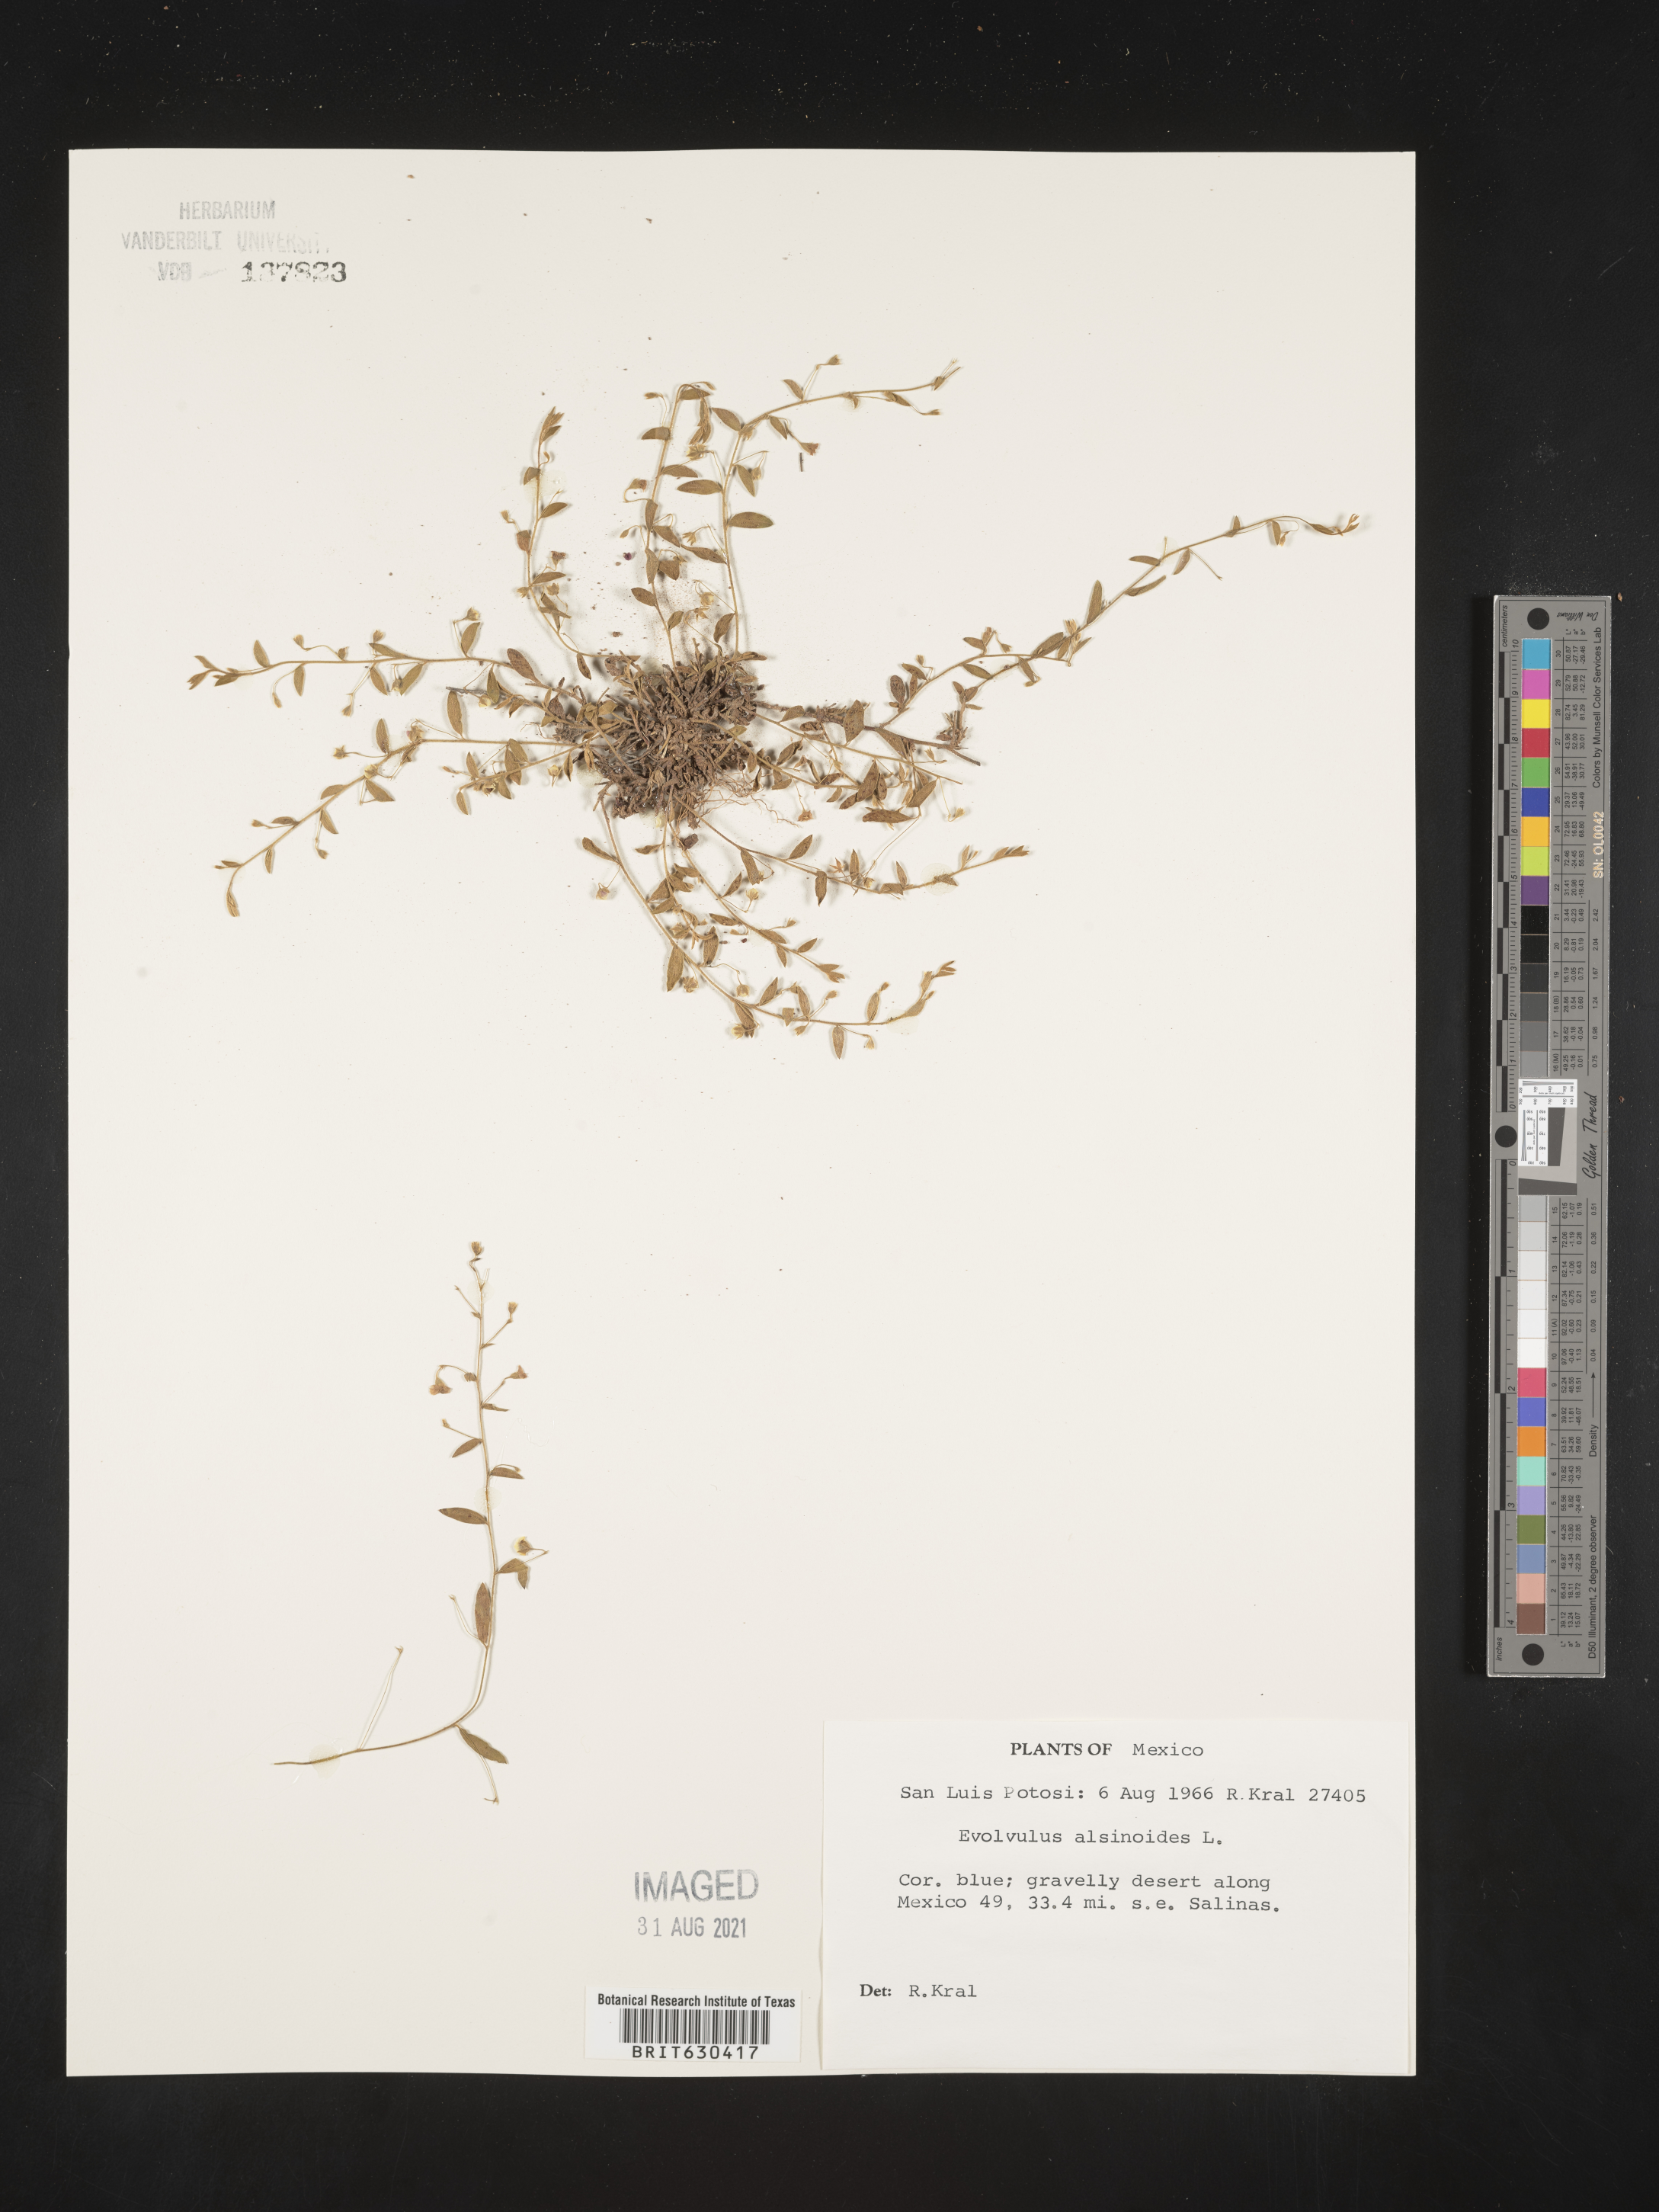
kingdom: Plantae
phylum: Tracheophyta
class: Magnoliopsida
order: Solanales
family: Convolvulaceae
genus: Evolvulus
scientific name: Evolvulus
